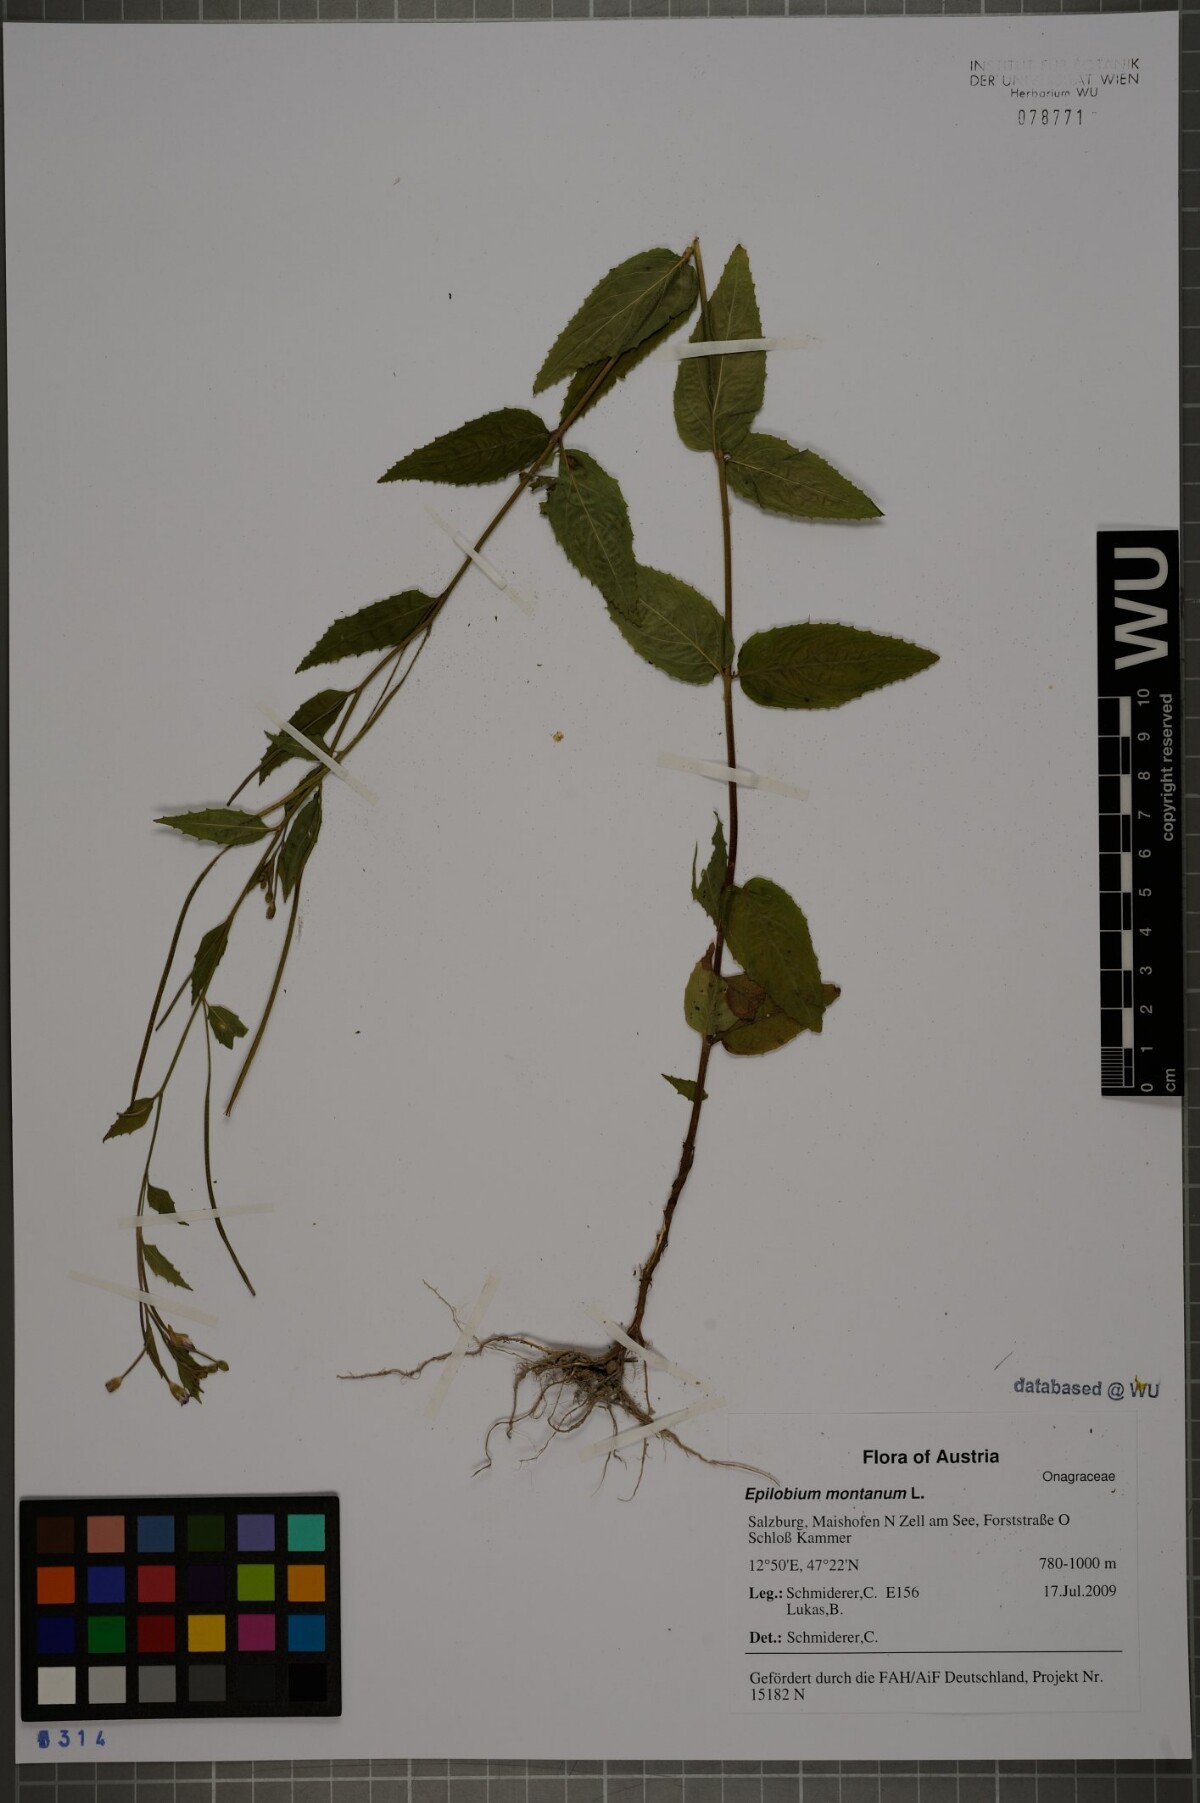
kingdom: Plantae
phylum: Tracheophyta
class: Magnoliopsida
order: Myrtales
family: Onagraceae
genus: Epilobium
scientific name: Epilobium montanum
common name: Broad-leaved willowherb
